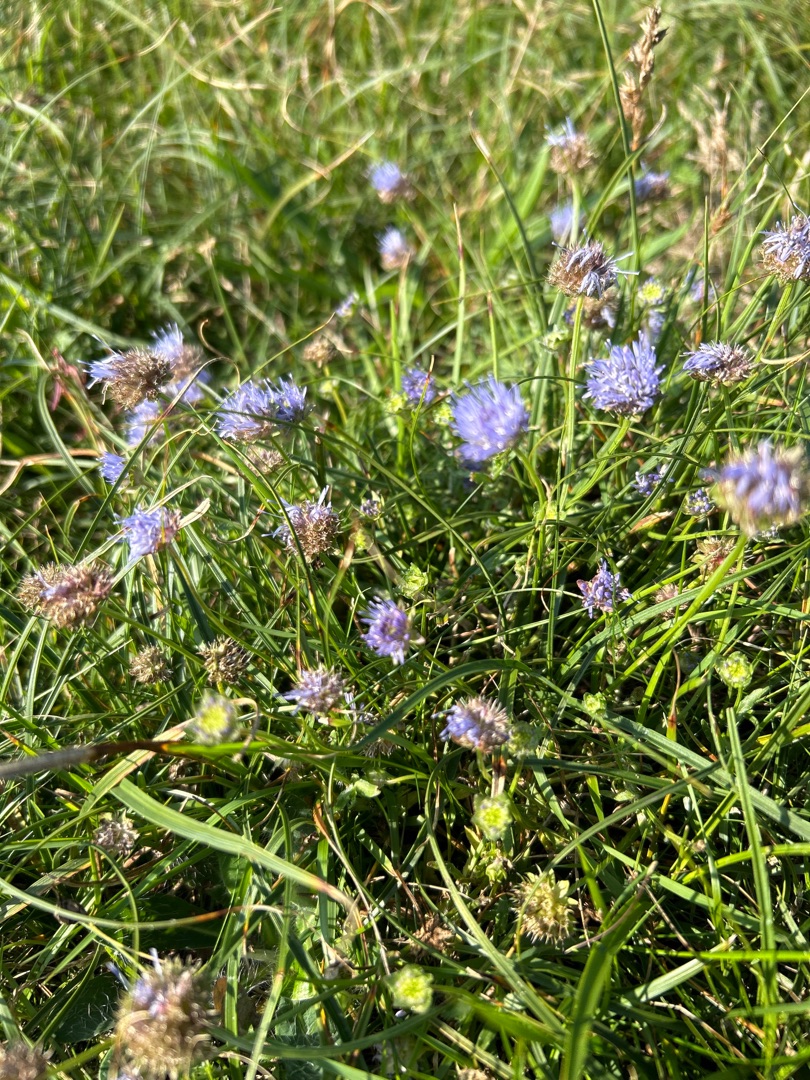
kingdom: Plantae
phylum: Tracheophyta
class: Magnoliopsida
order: Asterales
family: Campanulaceae
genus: Jasione
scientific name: Jasione montana
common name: Blåmunke
